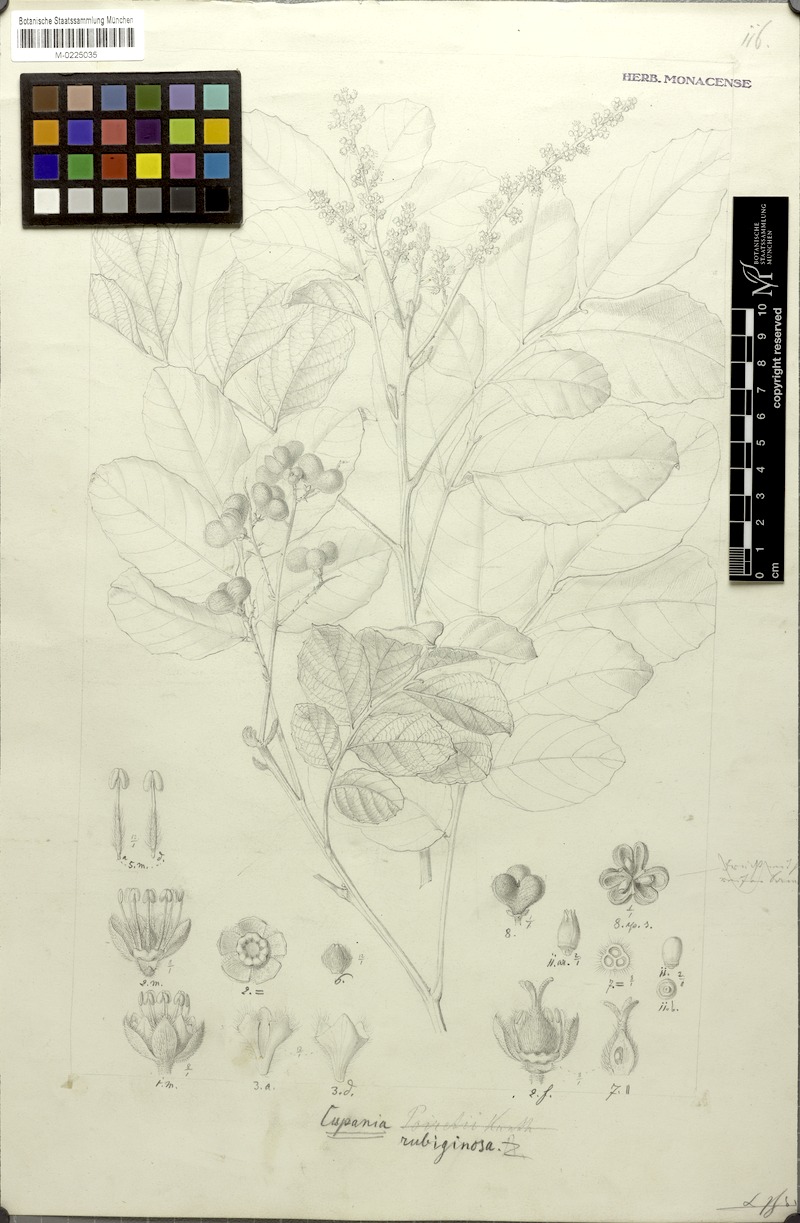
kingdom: Plantae
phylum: Tracheophyta
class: Magnoliopsida
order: Sapindales
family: Sapindaceae
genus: Cupania
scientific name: Cupania rubiginosa
